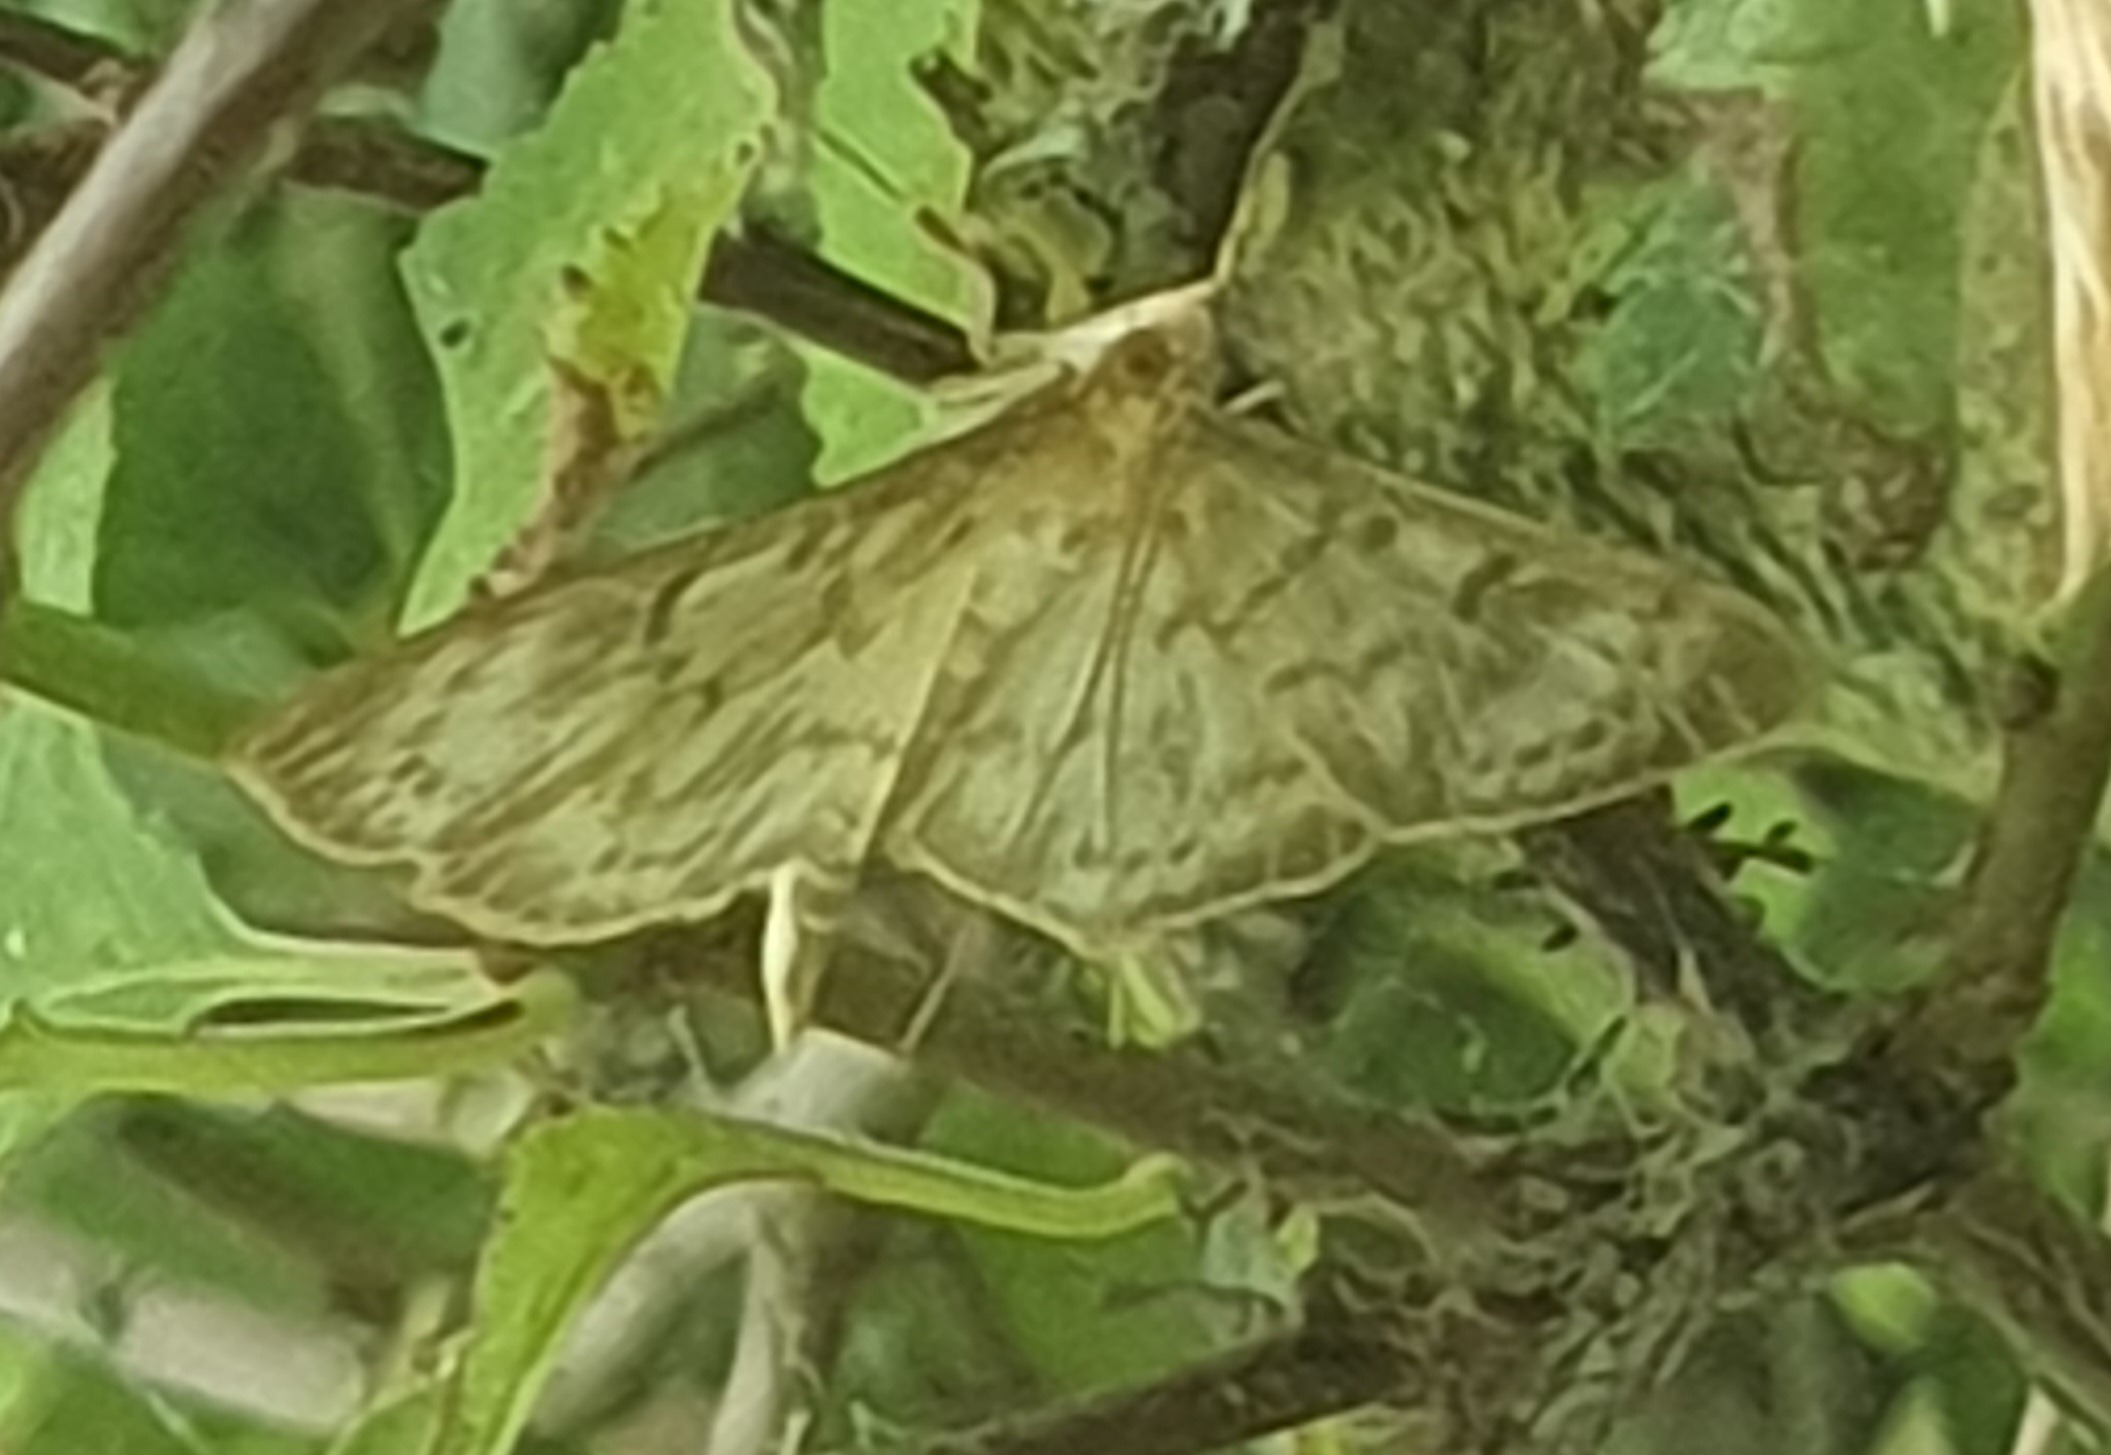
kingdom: Animalia
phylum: Arthropoda
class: Insecta
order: Lepidoptera
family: Crambidae
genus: Patania
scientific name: Patania ruralis
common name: Perlemorshalvmøl
